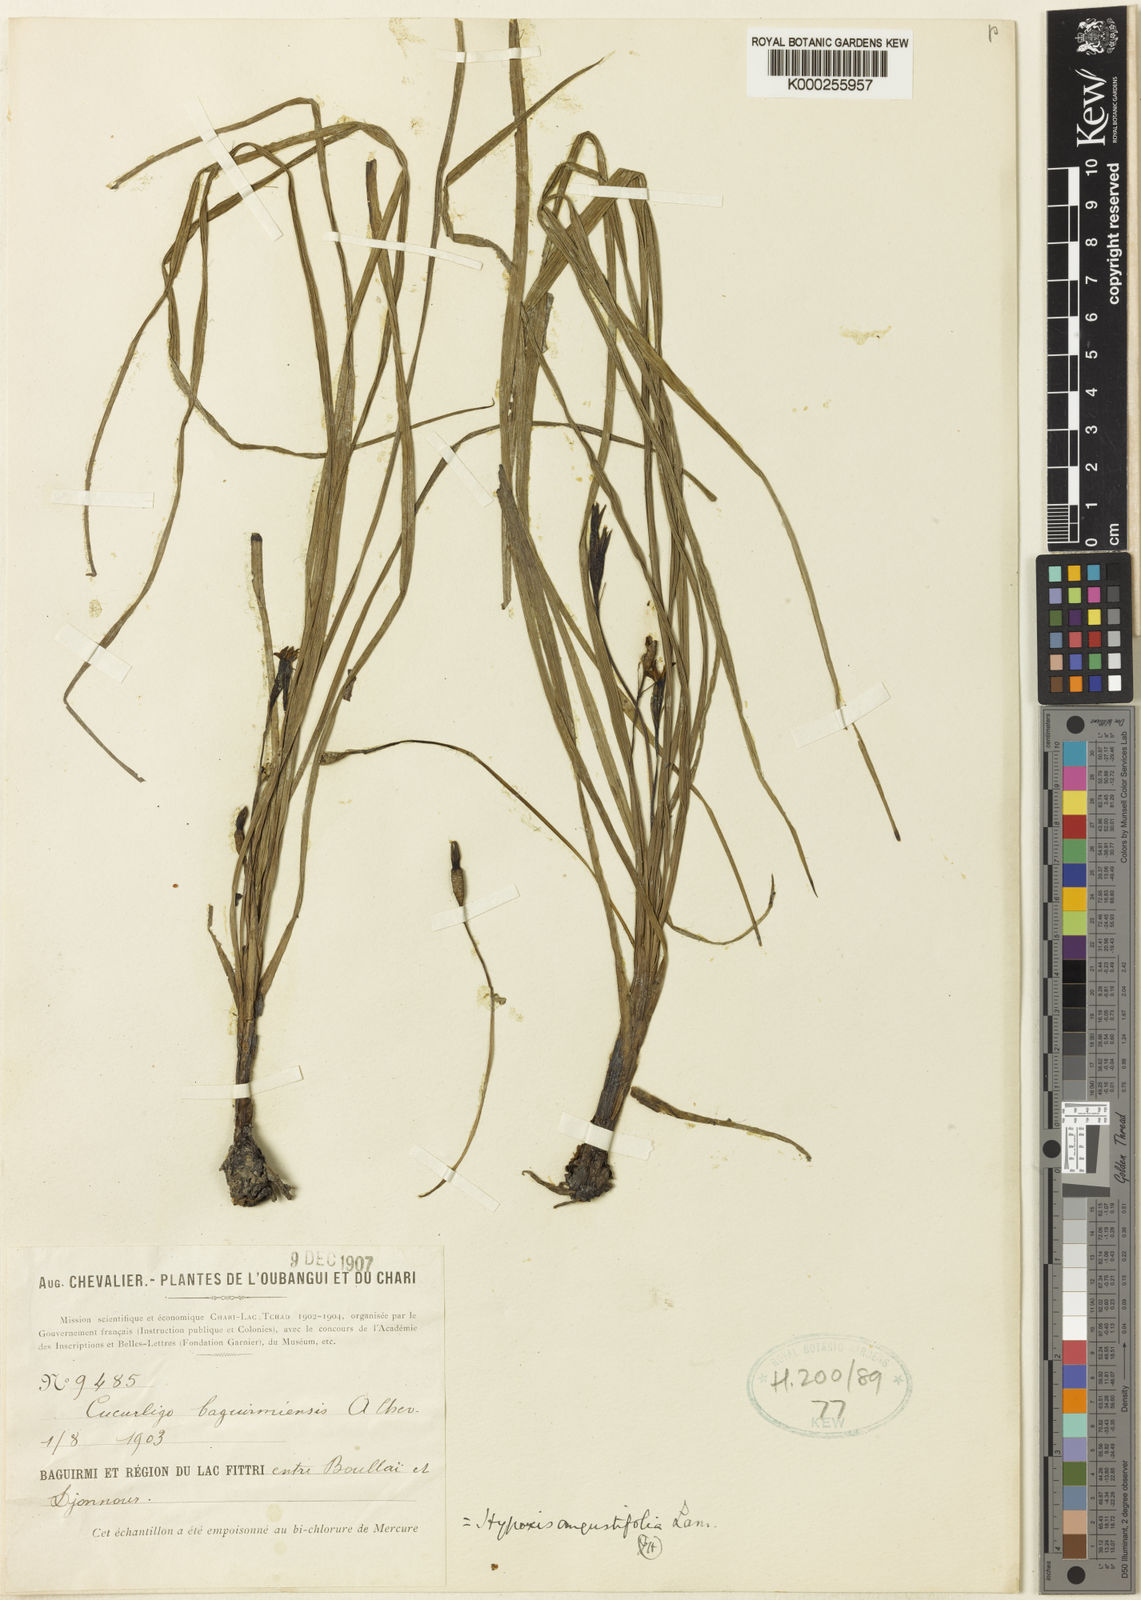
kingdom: Plantae
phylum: Tracheophyta
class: Liliopsida
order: Asparagales
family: Hypoxidaceae
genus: Hypoxis
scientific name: Hypoxis angustifolia
